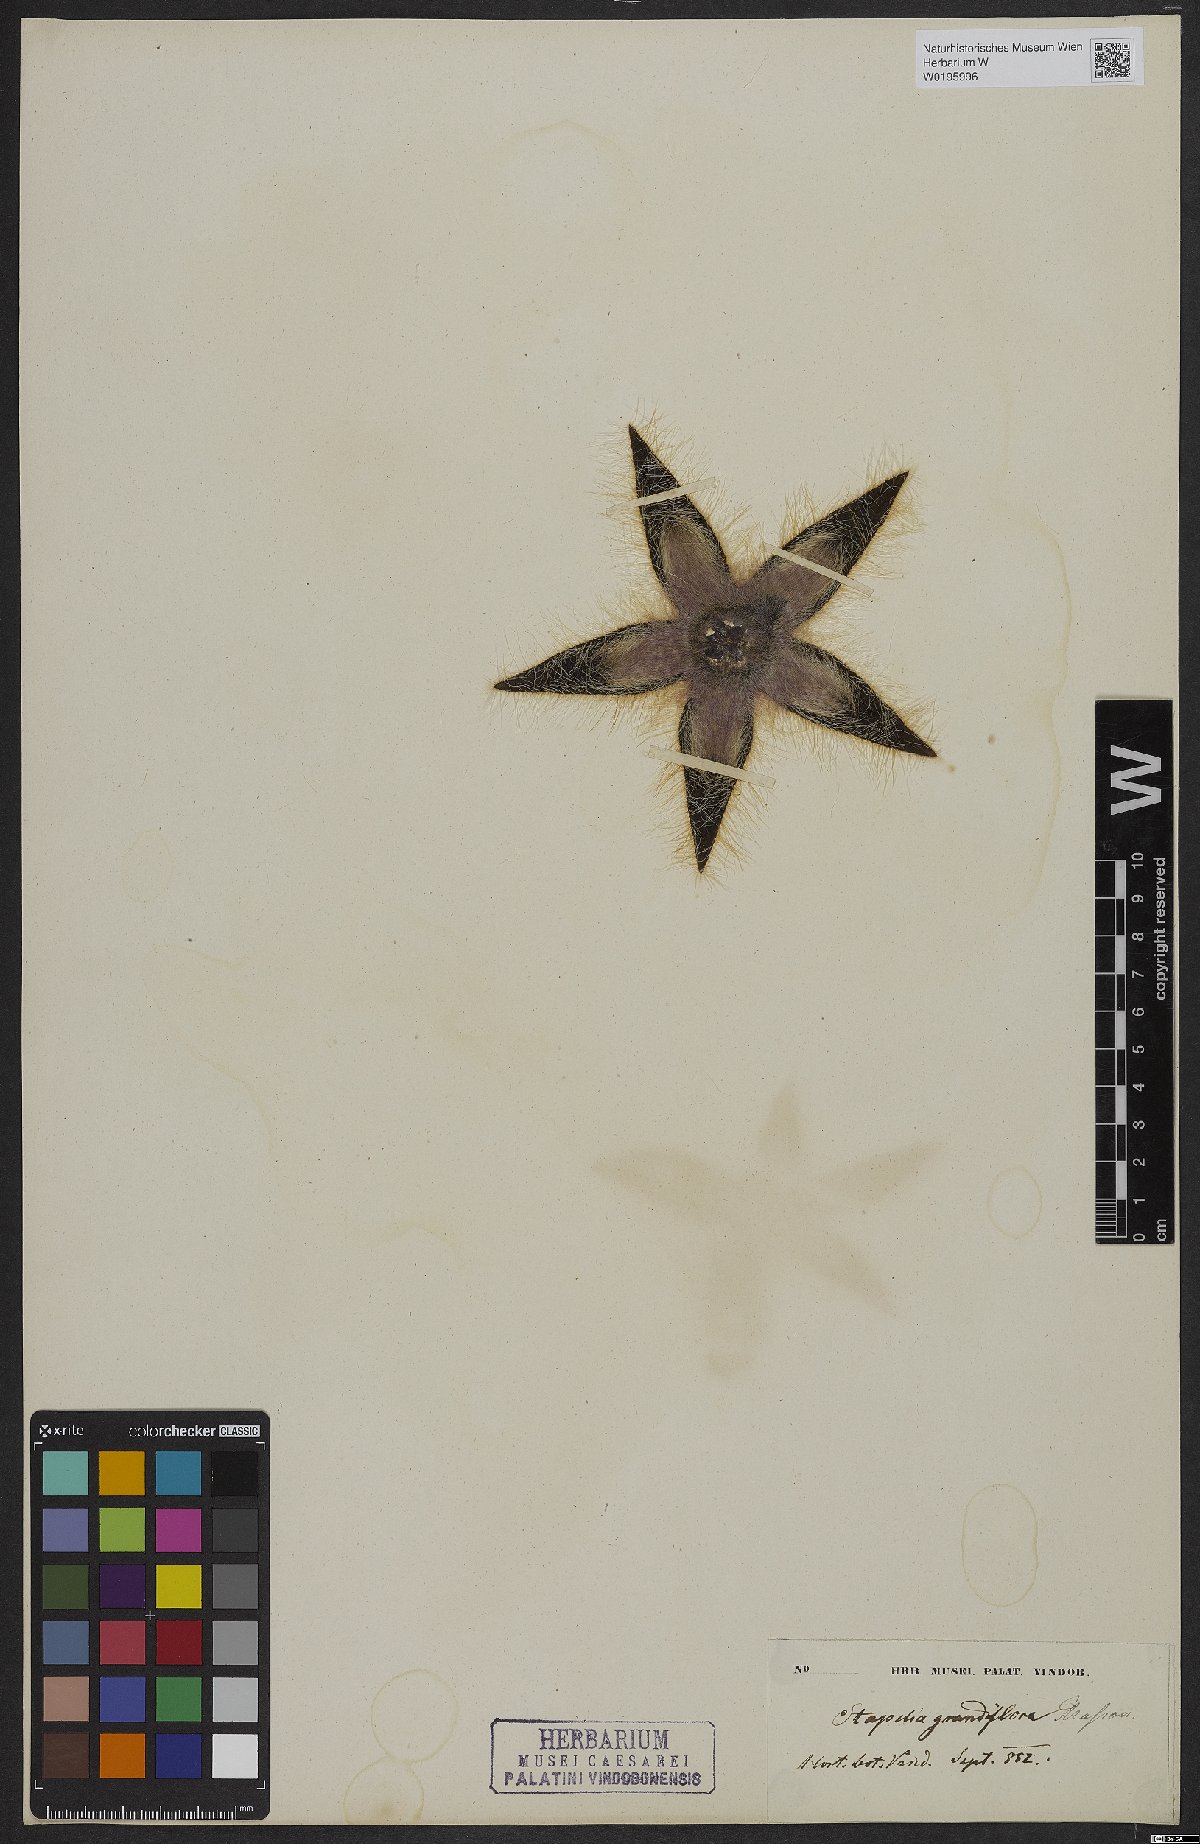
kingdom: Plantae
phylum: Tracheophyta
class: Magnoliopsida
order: Gentianales
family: Apocynaceae
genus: Ceropegia
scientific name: Ceropegia grandiflora
